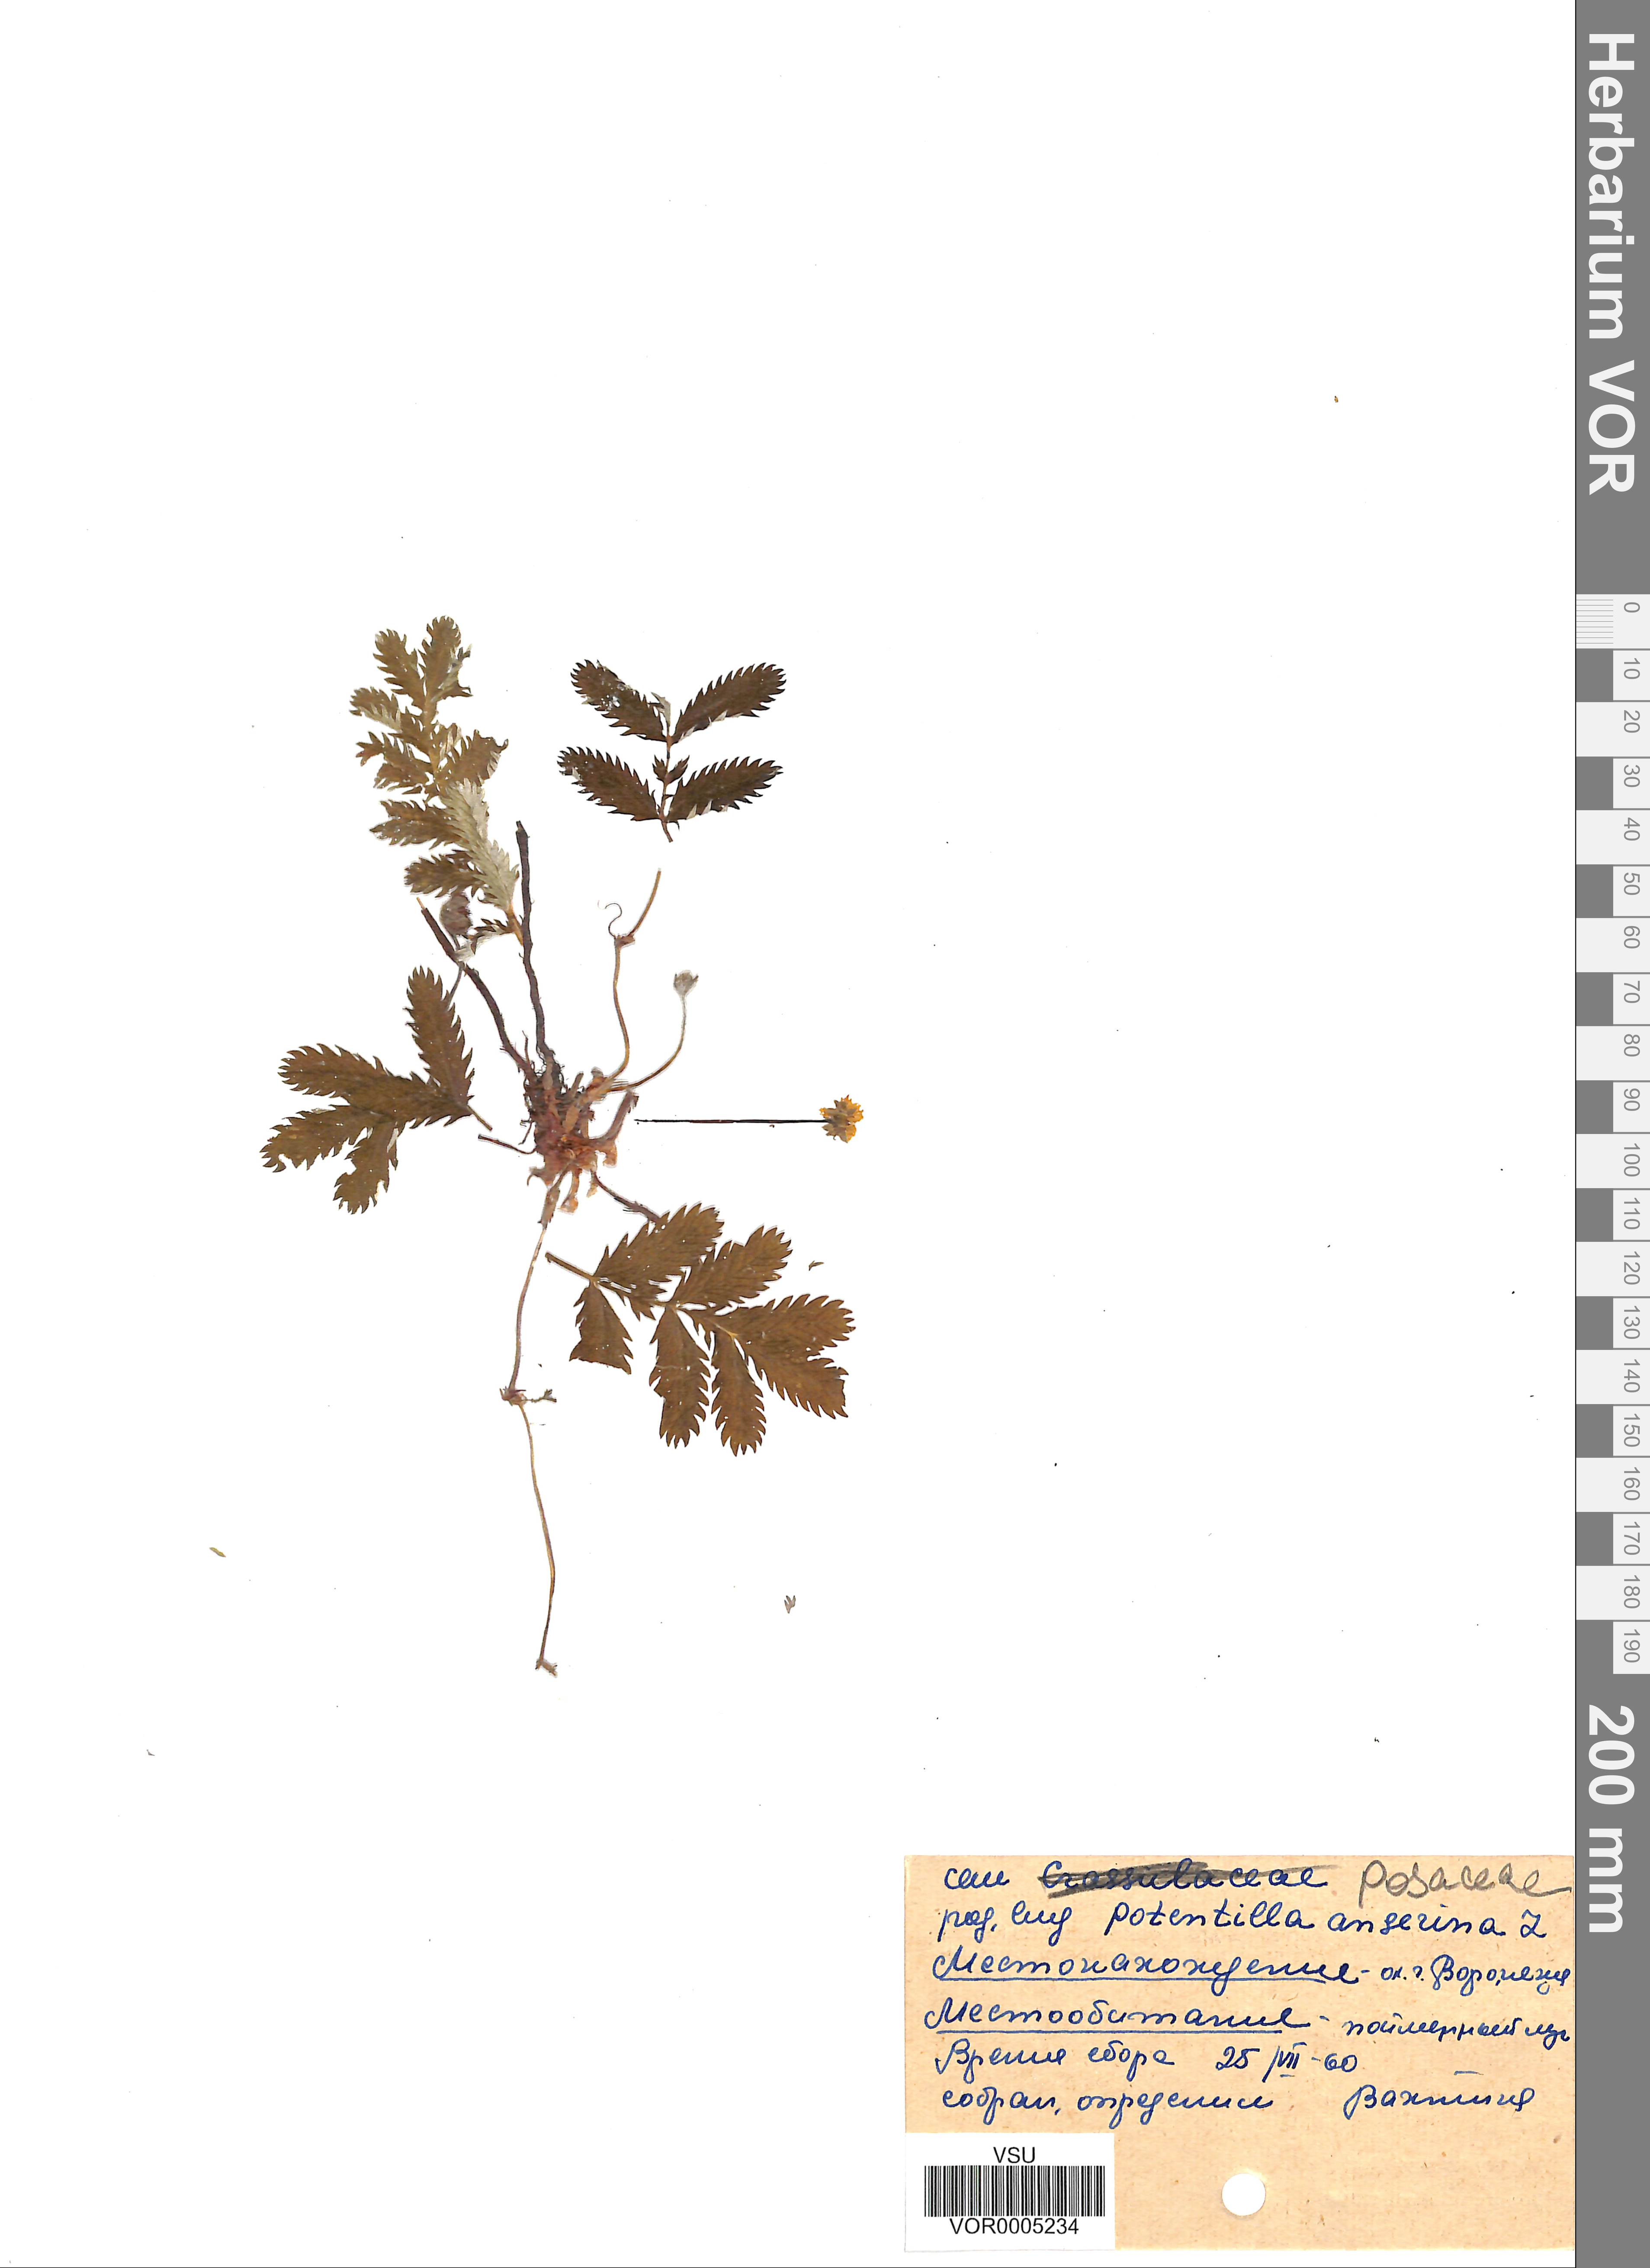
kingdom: Plantae
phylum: Tracheophyta
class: Magnoliopsida
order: Rosales
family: Rosaceae
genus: Argentina
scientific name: Argentina anserina
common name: Common silverweed
